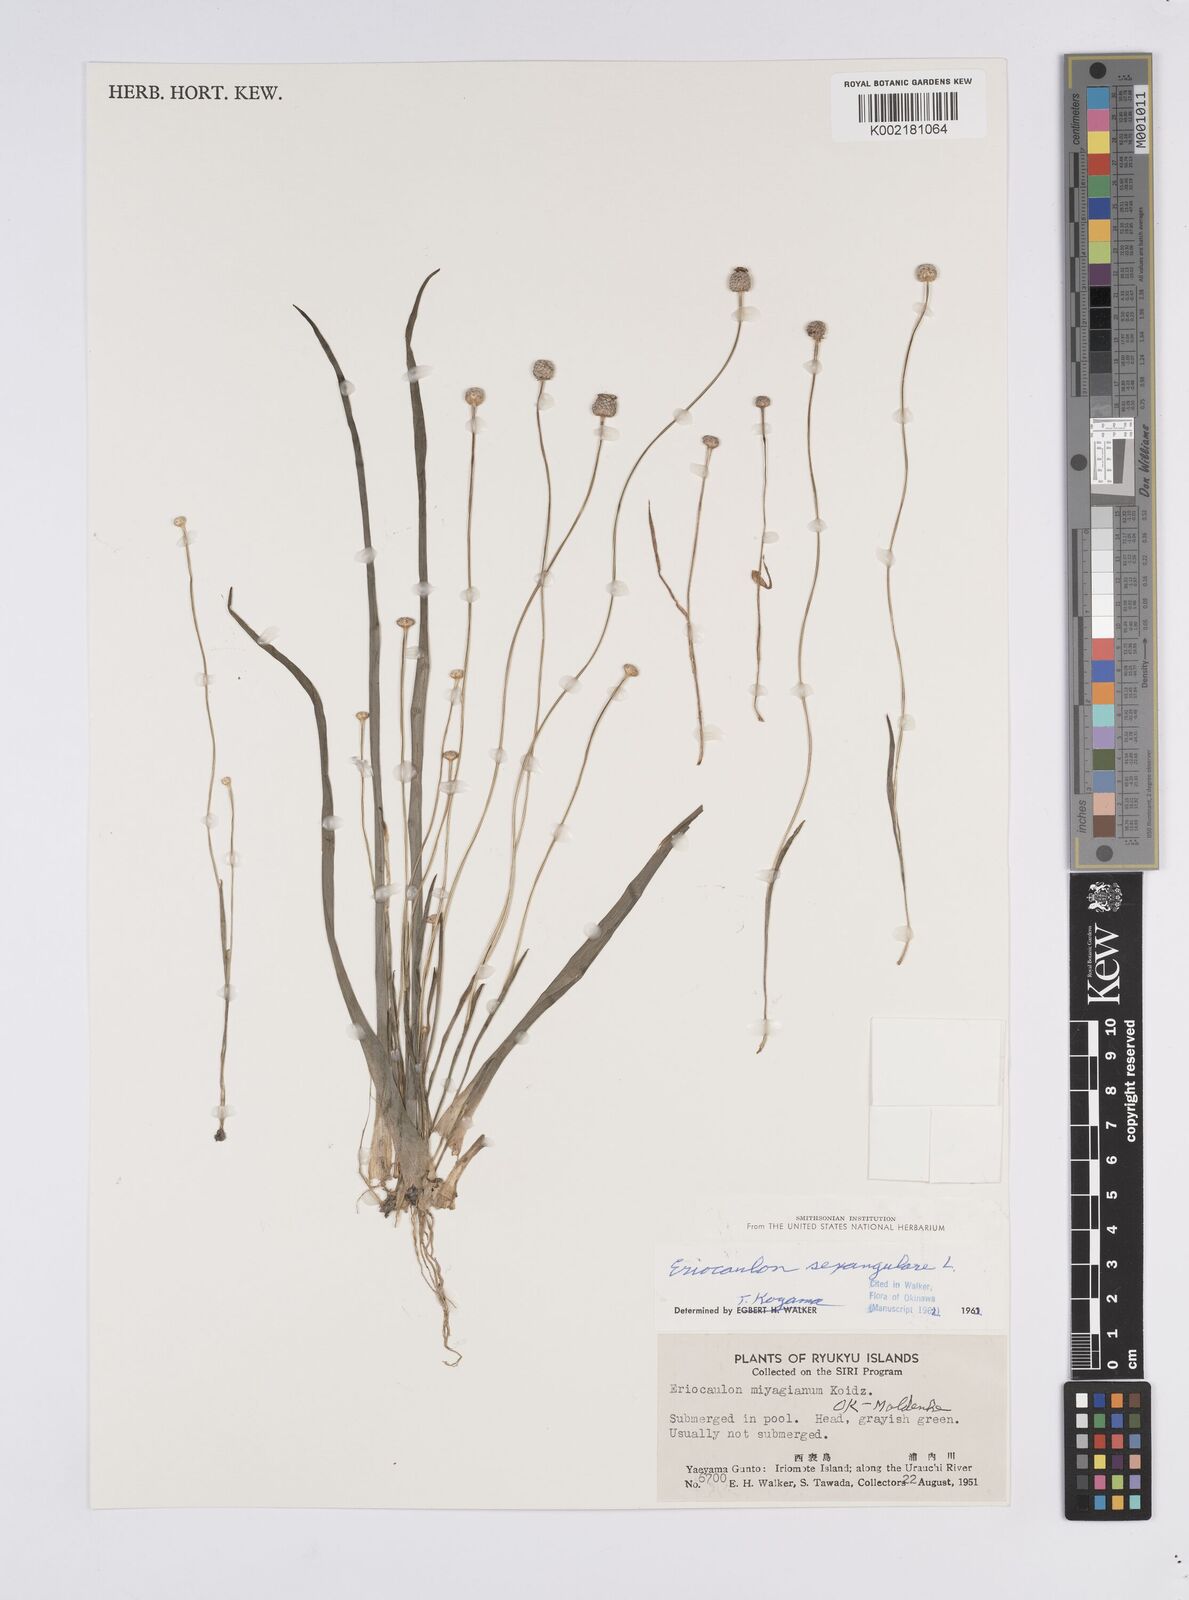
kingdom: Plantae
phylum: Tracheophyta
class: Liliopsida
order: Poales
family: Eriocaulaceae
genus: Eriocaulon
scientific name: Eriocaulon sexangulare
